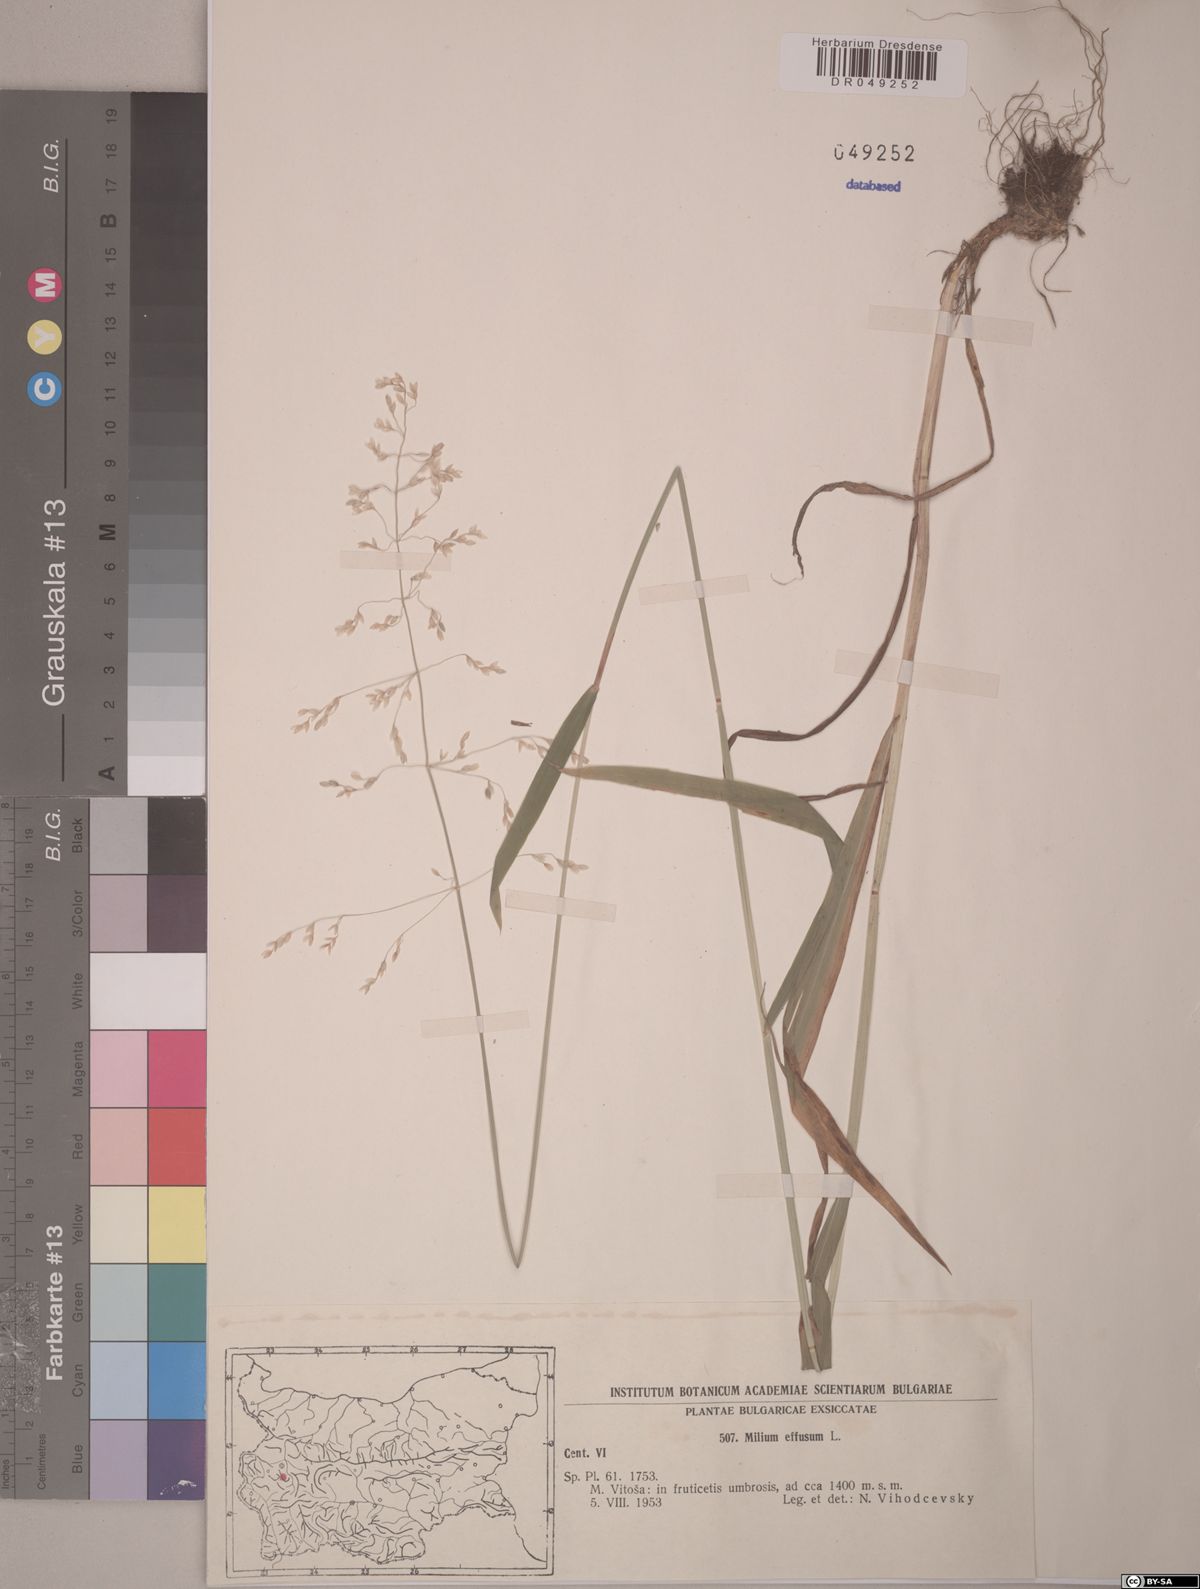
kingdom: Plantae
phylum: Tracheophyta
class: Liliopsida
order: Poales
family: Poaceae
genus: Milium
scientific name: Milium effusum
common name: Wood millet
